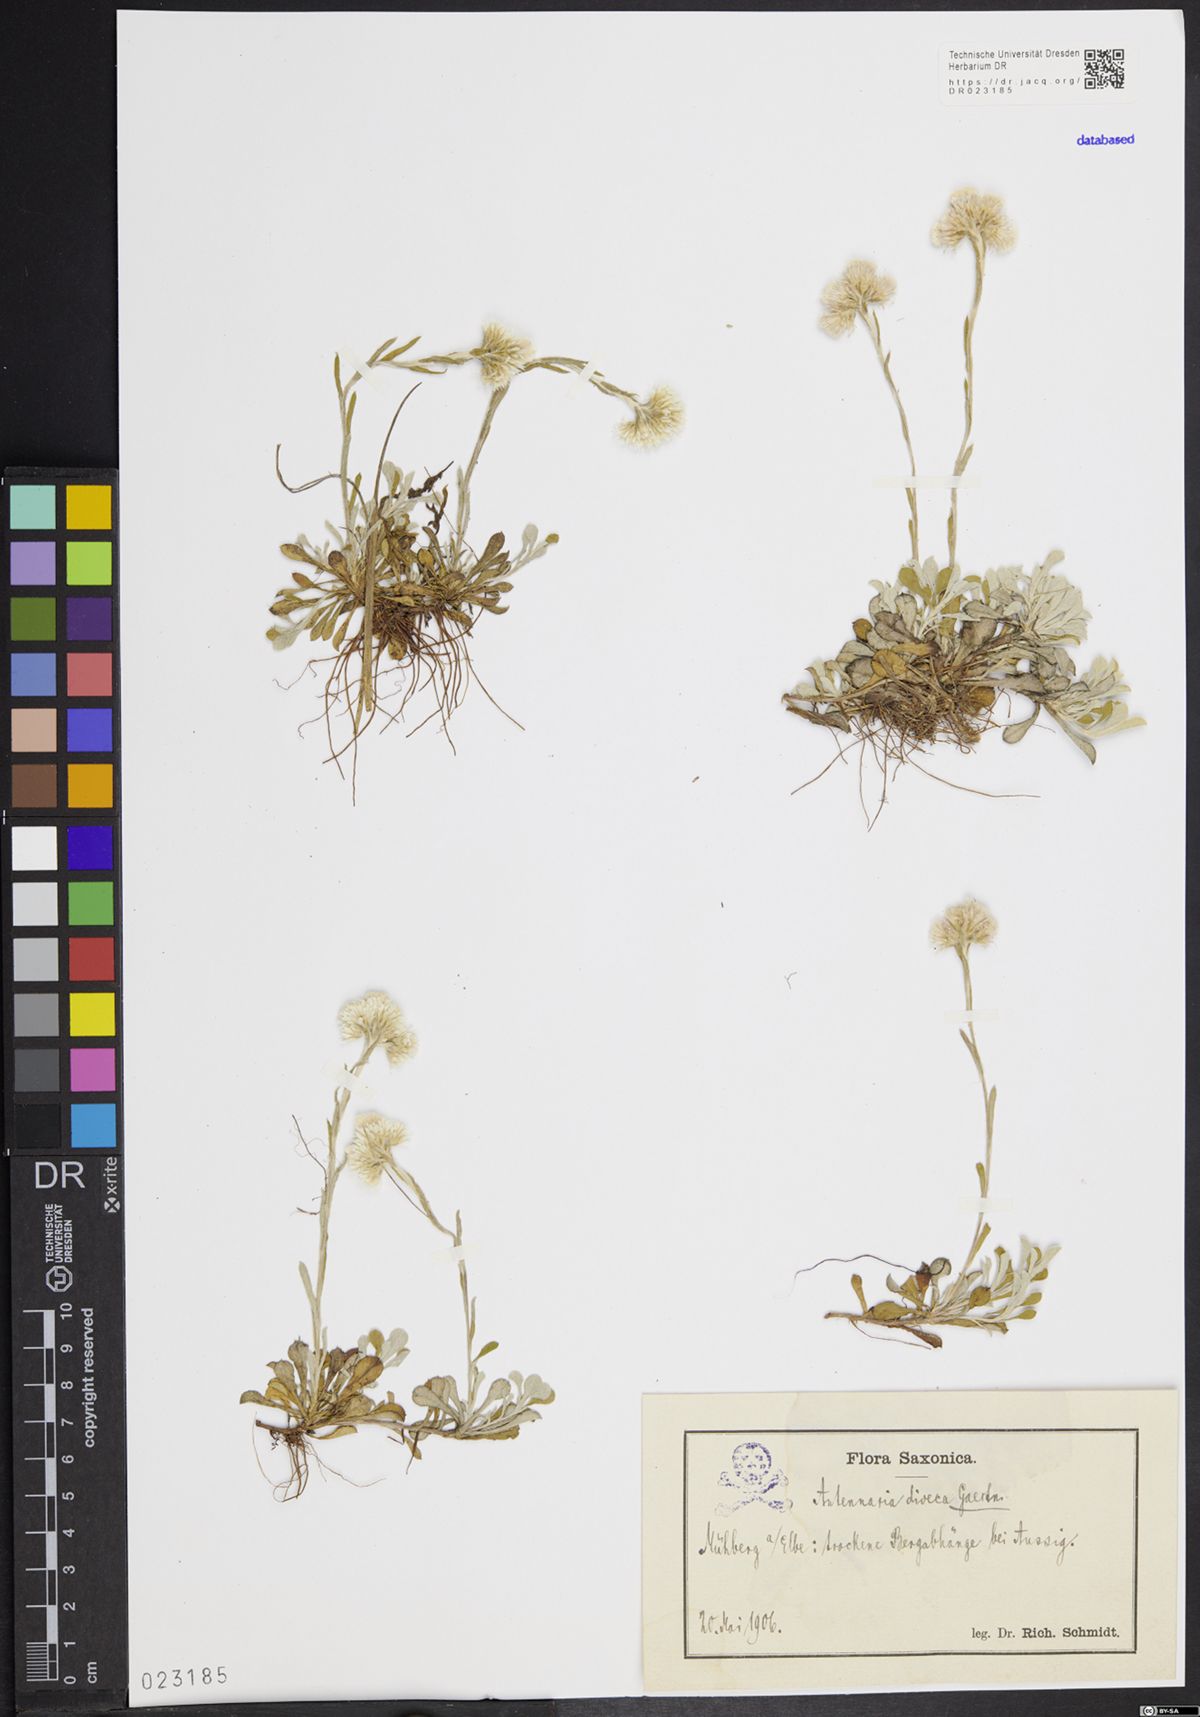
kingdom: Plantae
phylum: Tracheophyta
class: Magnoliopsida
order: Asterales
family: Asteraceae
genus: Antennaria
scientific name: Antennaria dioica
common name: Mountain everlasting
